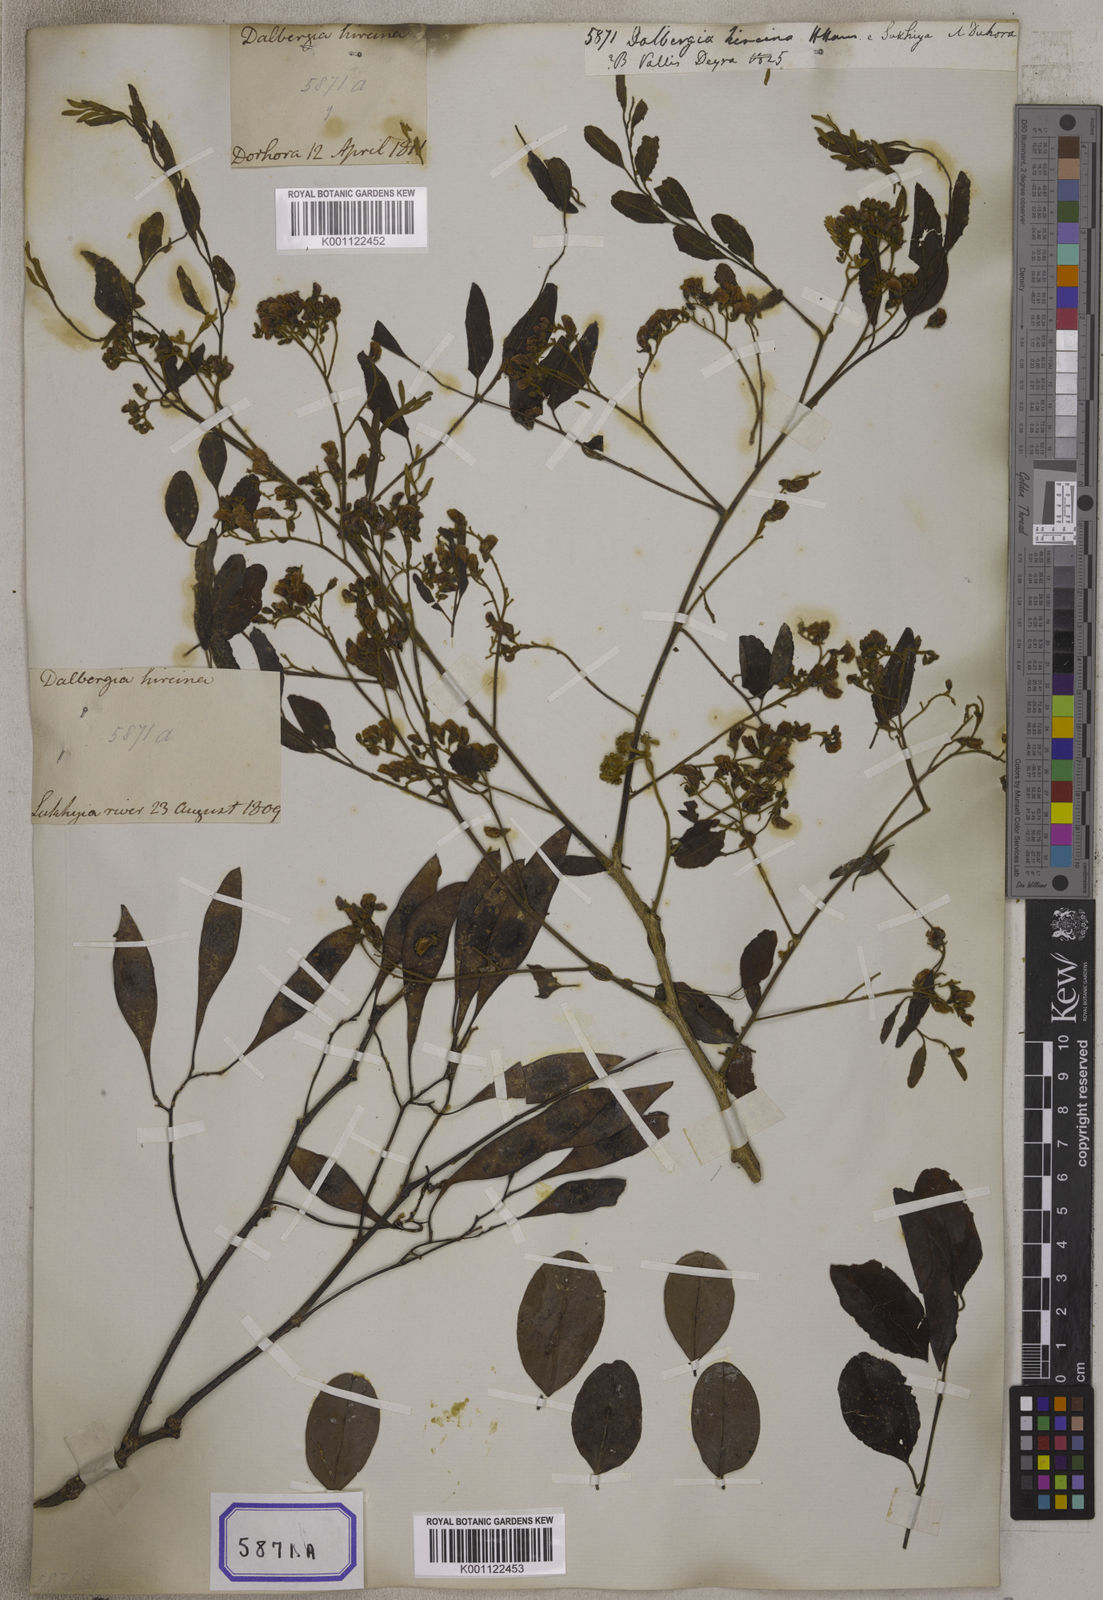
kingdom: Plantae
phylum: Tracheophyta
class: Magnoliopsida
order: Fabales
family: Fabaceae
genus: Dalbergia
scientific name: Dalbergia
